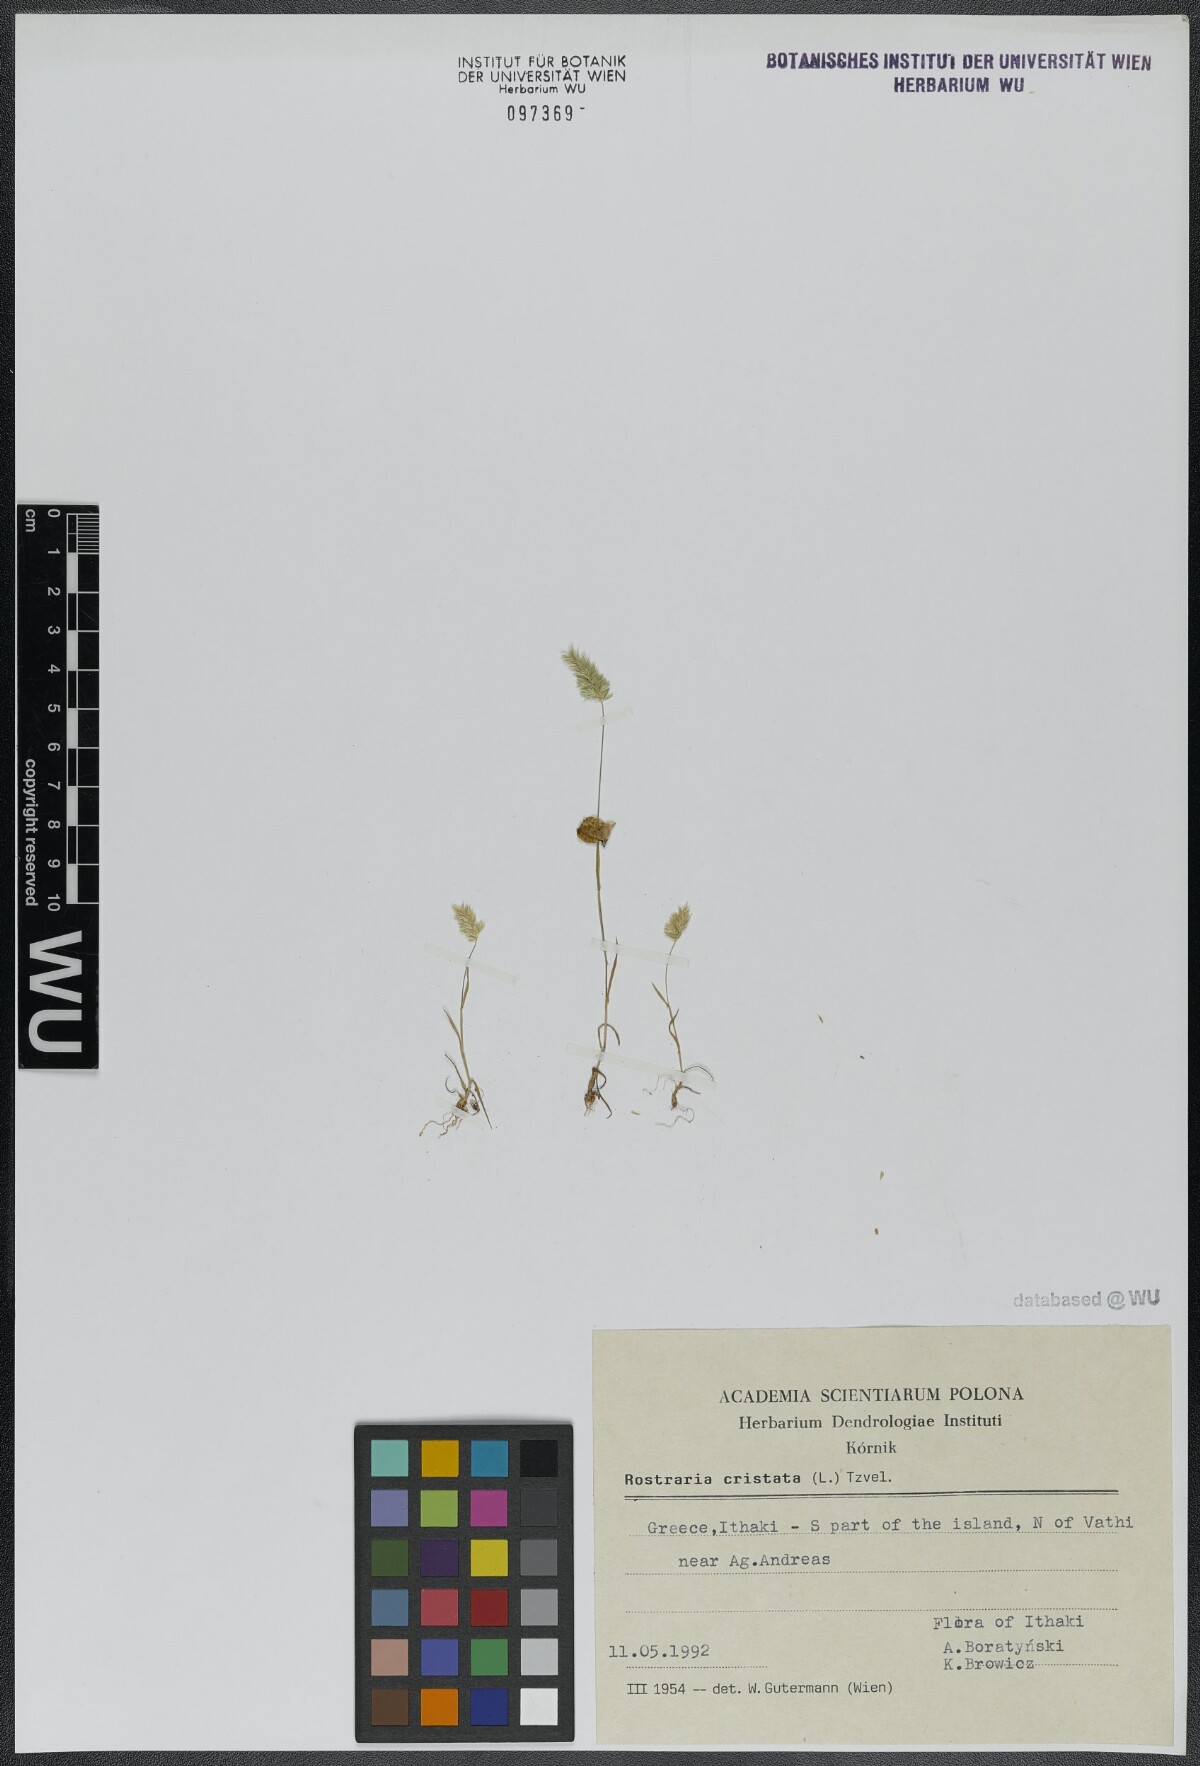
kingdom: Plantae
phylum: Tracheophyta
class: Liliopsida
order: Poales
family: Poaceae
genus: Rostraria
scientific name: Rostraria cristata
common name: Mediterranean hair-grass
